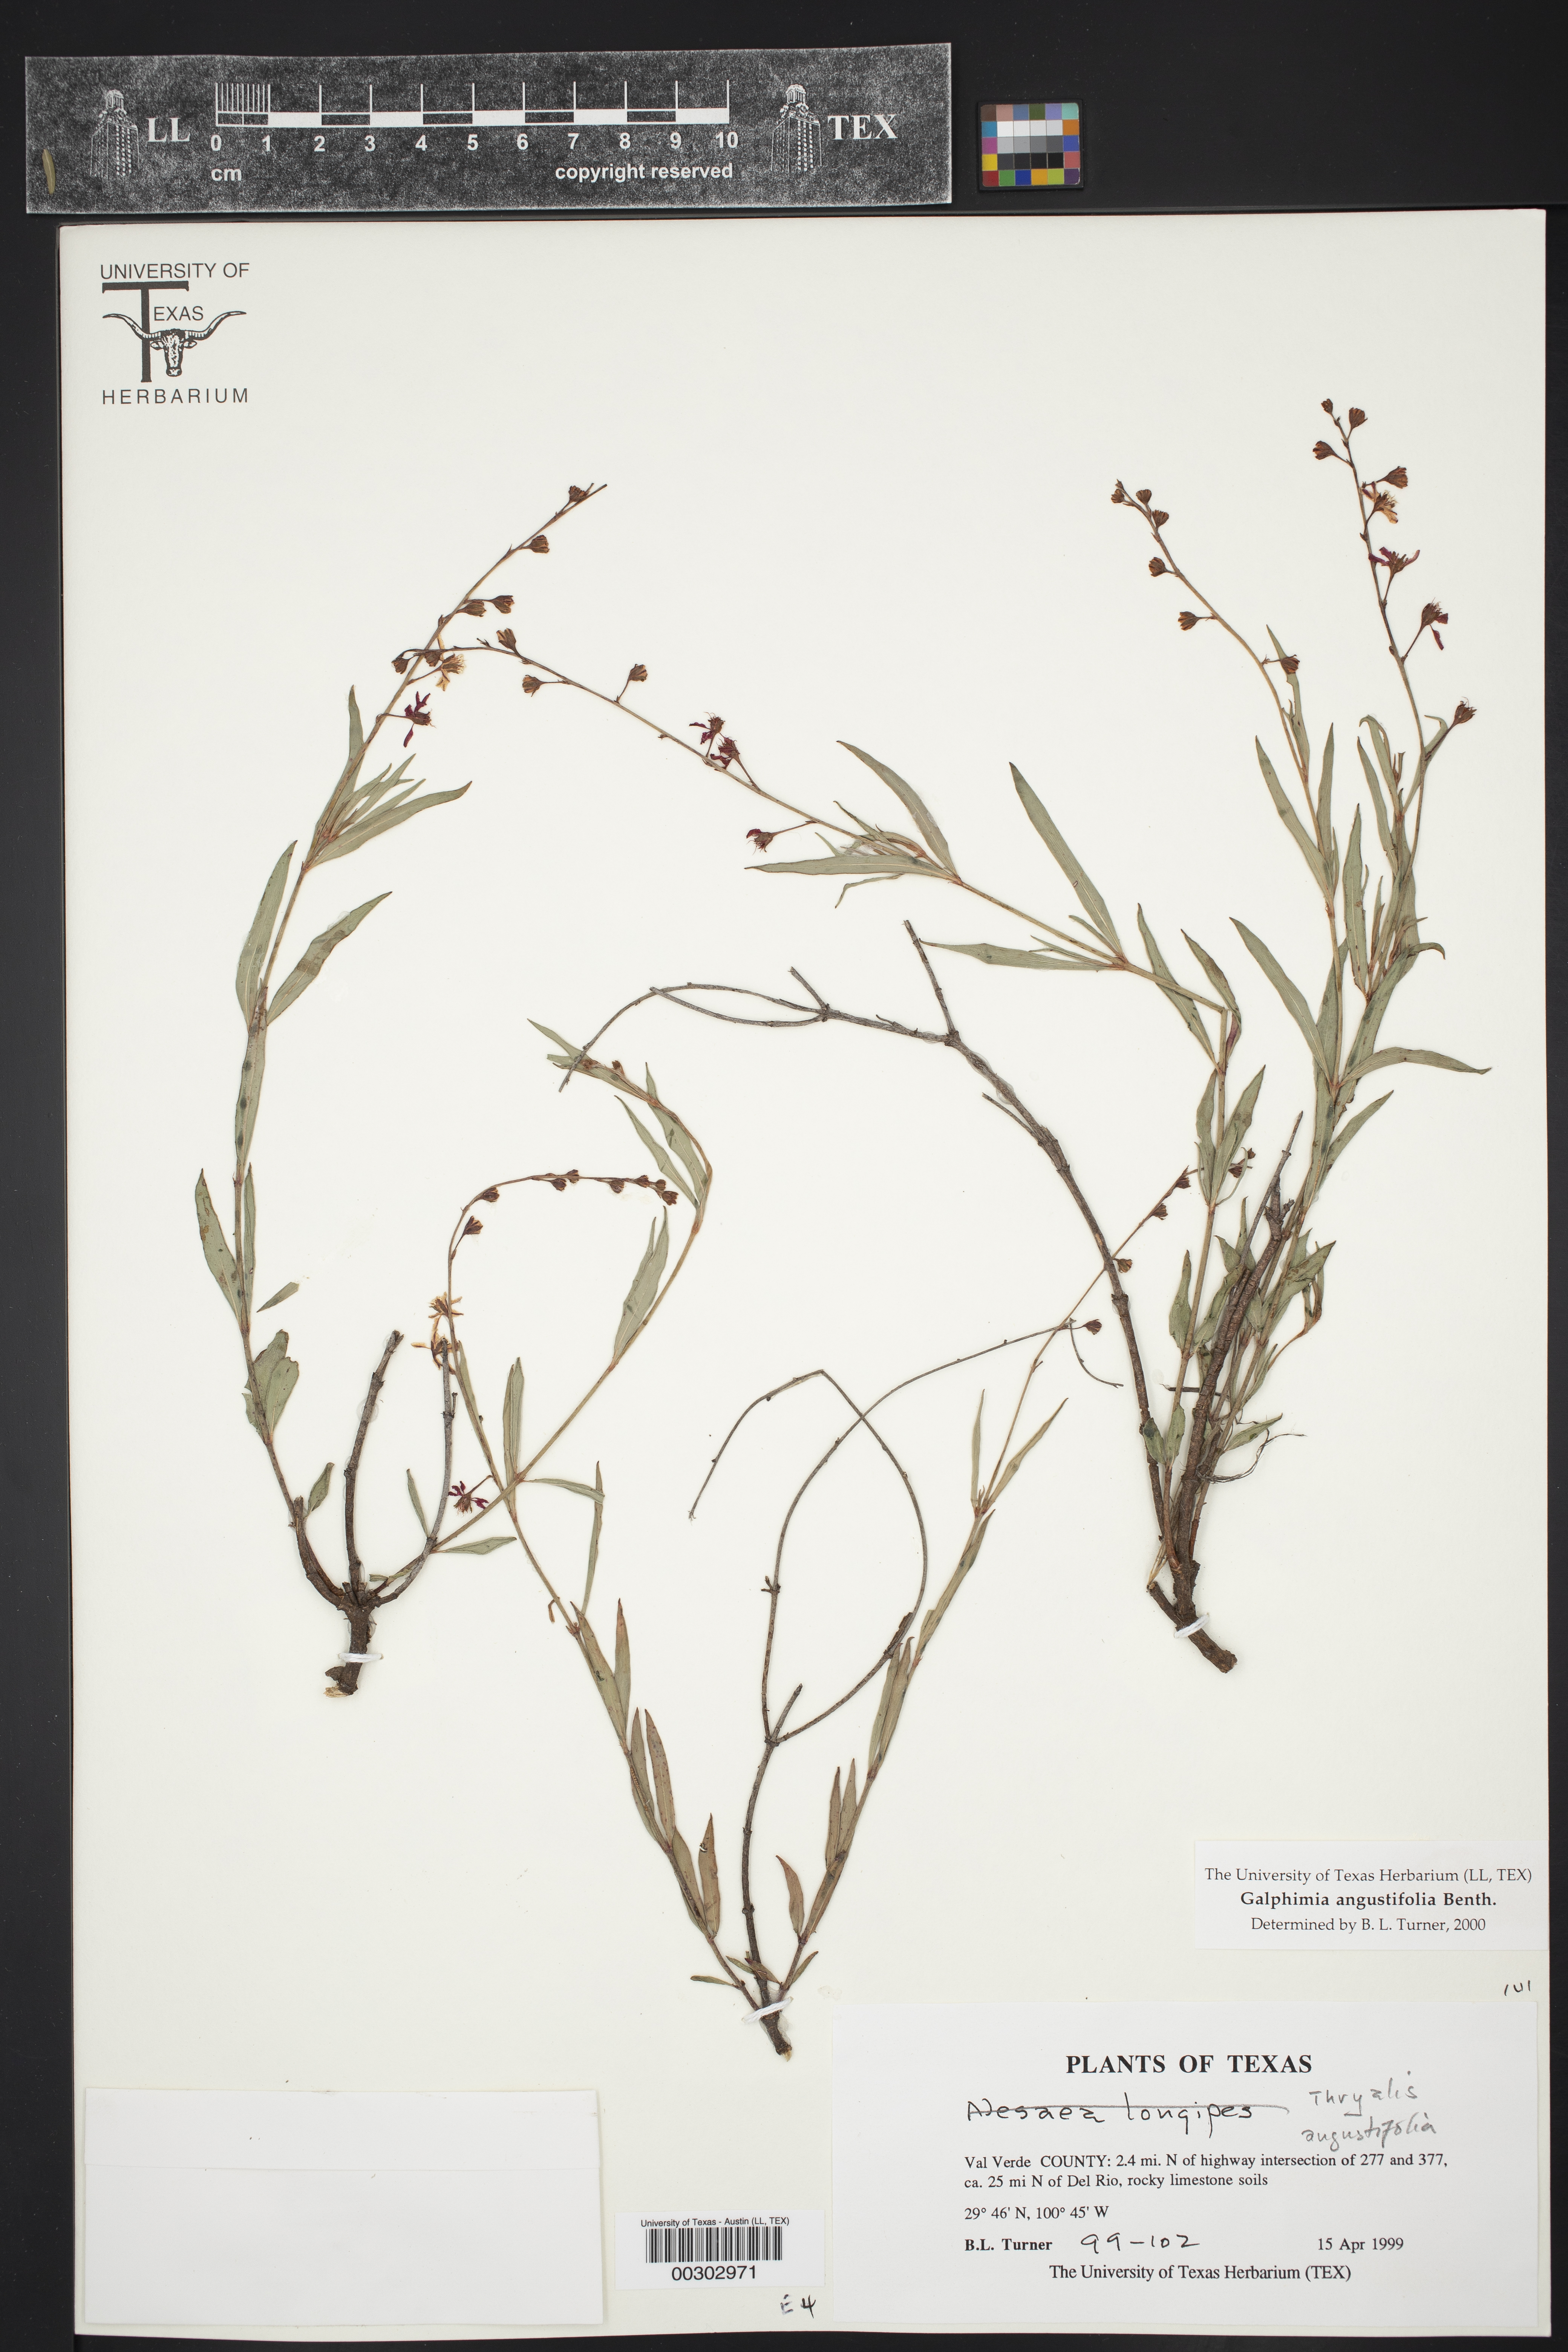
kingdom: Plantae
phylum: Tracheophyta
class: Magnoliopsida
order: Malpighiales
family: Malpighiaceae
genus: Galphimia
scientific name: Galphimia angustifolia
